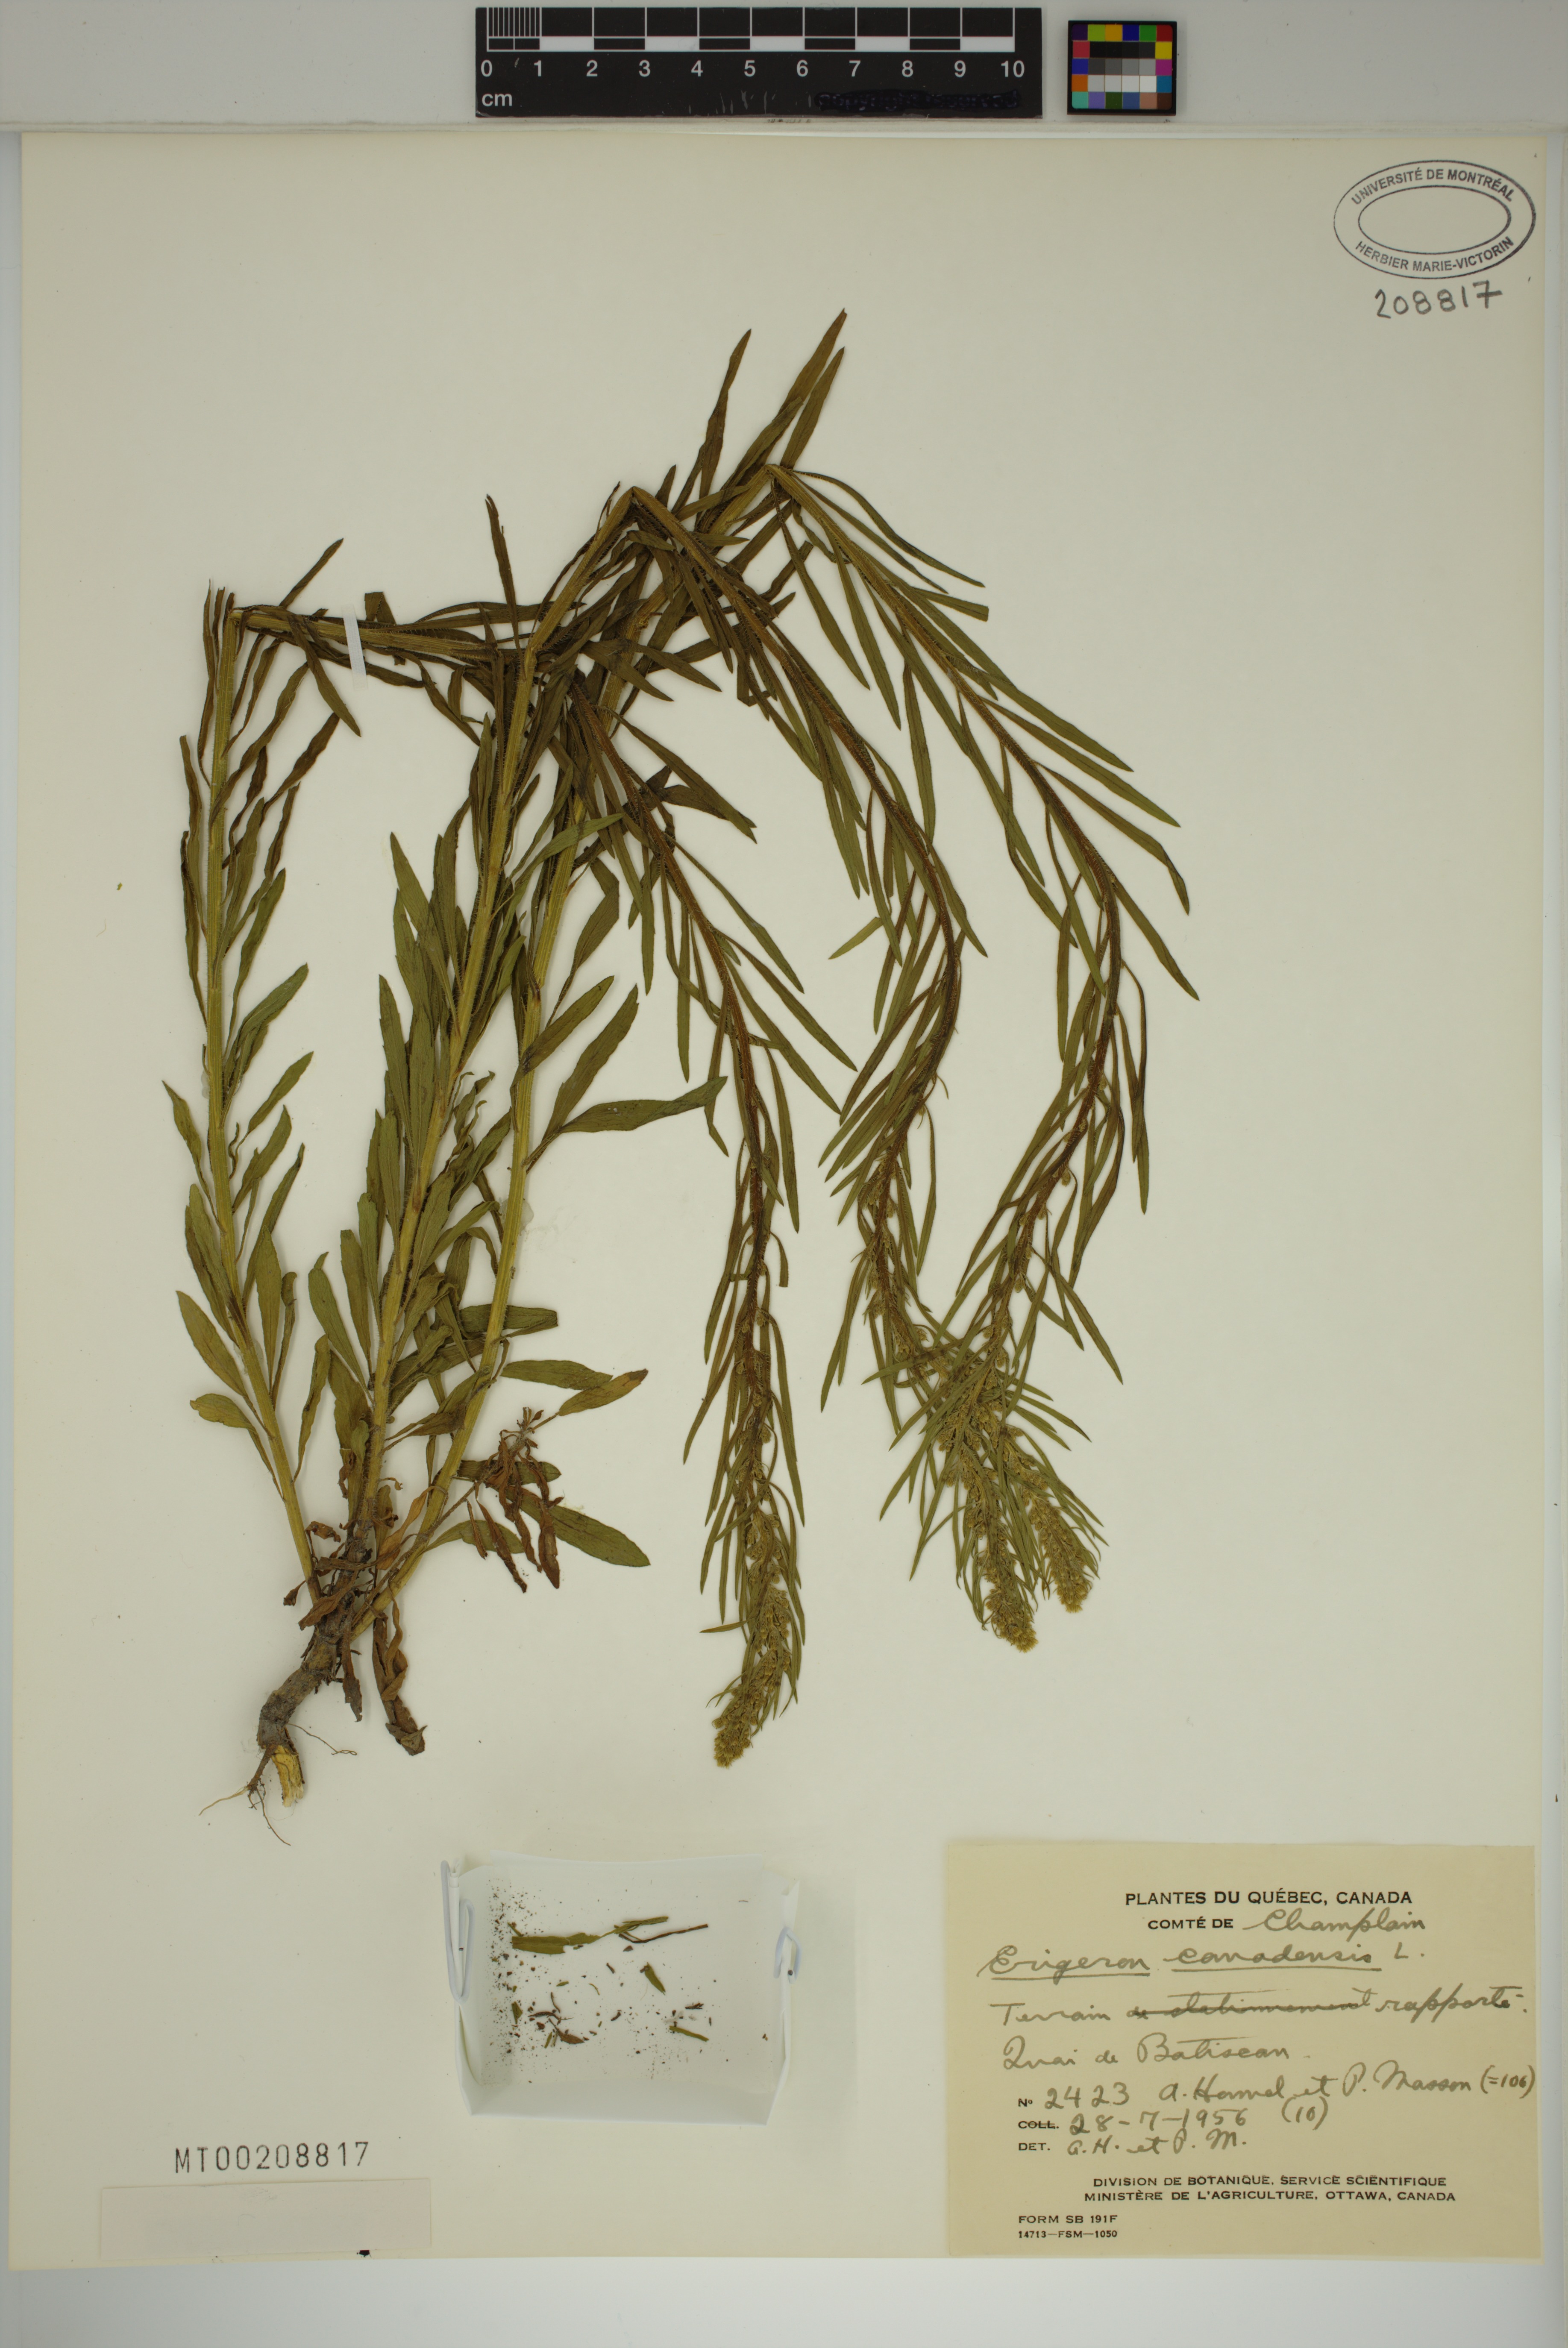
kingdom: Plantae
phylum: Tracheophyta
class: Magnoliopsida
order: Asterales
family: Asteraceae
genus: Erigeron
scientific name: Erigeron canadensis
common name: Canadian fleabane
